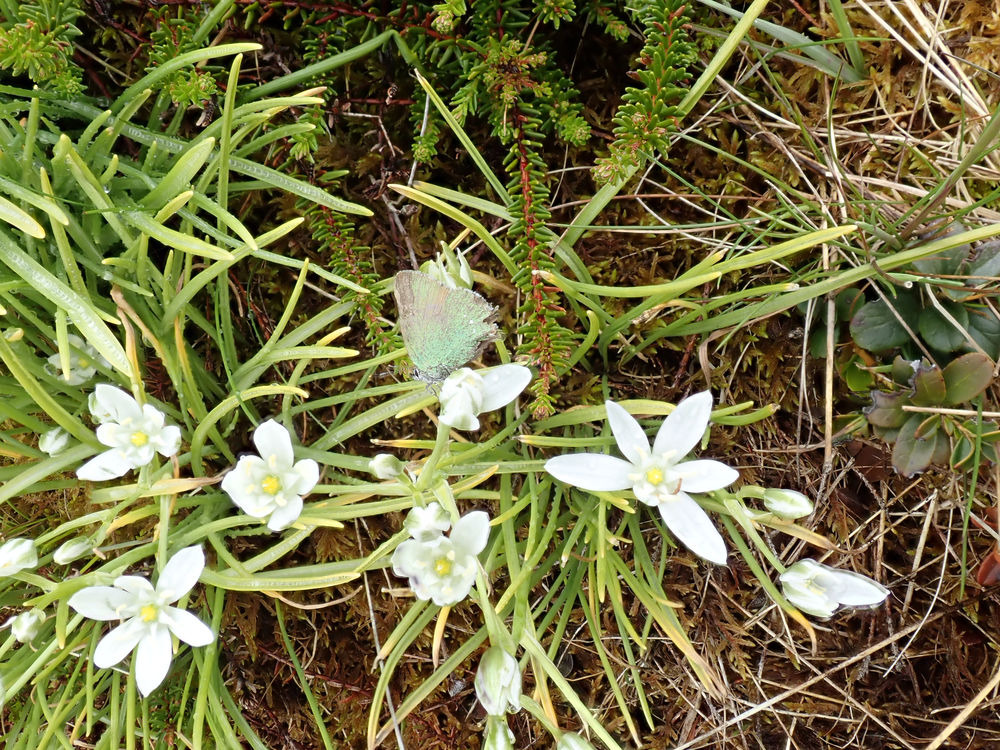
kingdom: Plantae
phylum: Tracheophyta
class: Liliopsida
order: Asparagales
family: Asparagaceae
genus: Ornithogalum
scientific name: Ornithogalum umbellatum
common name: Kost-fuglemælk
